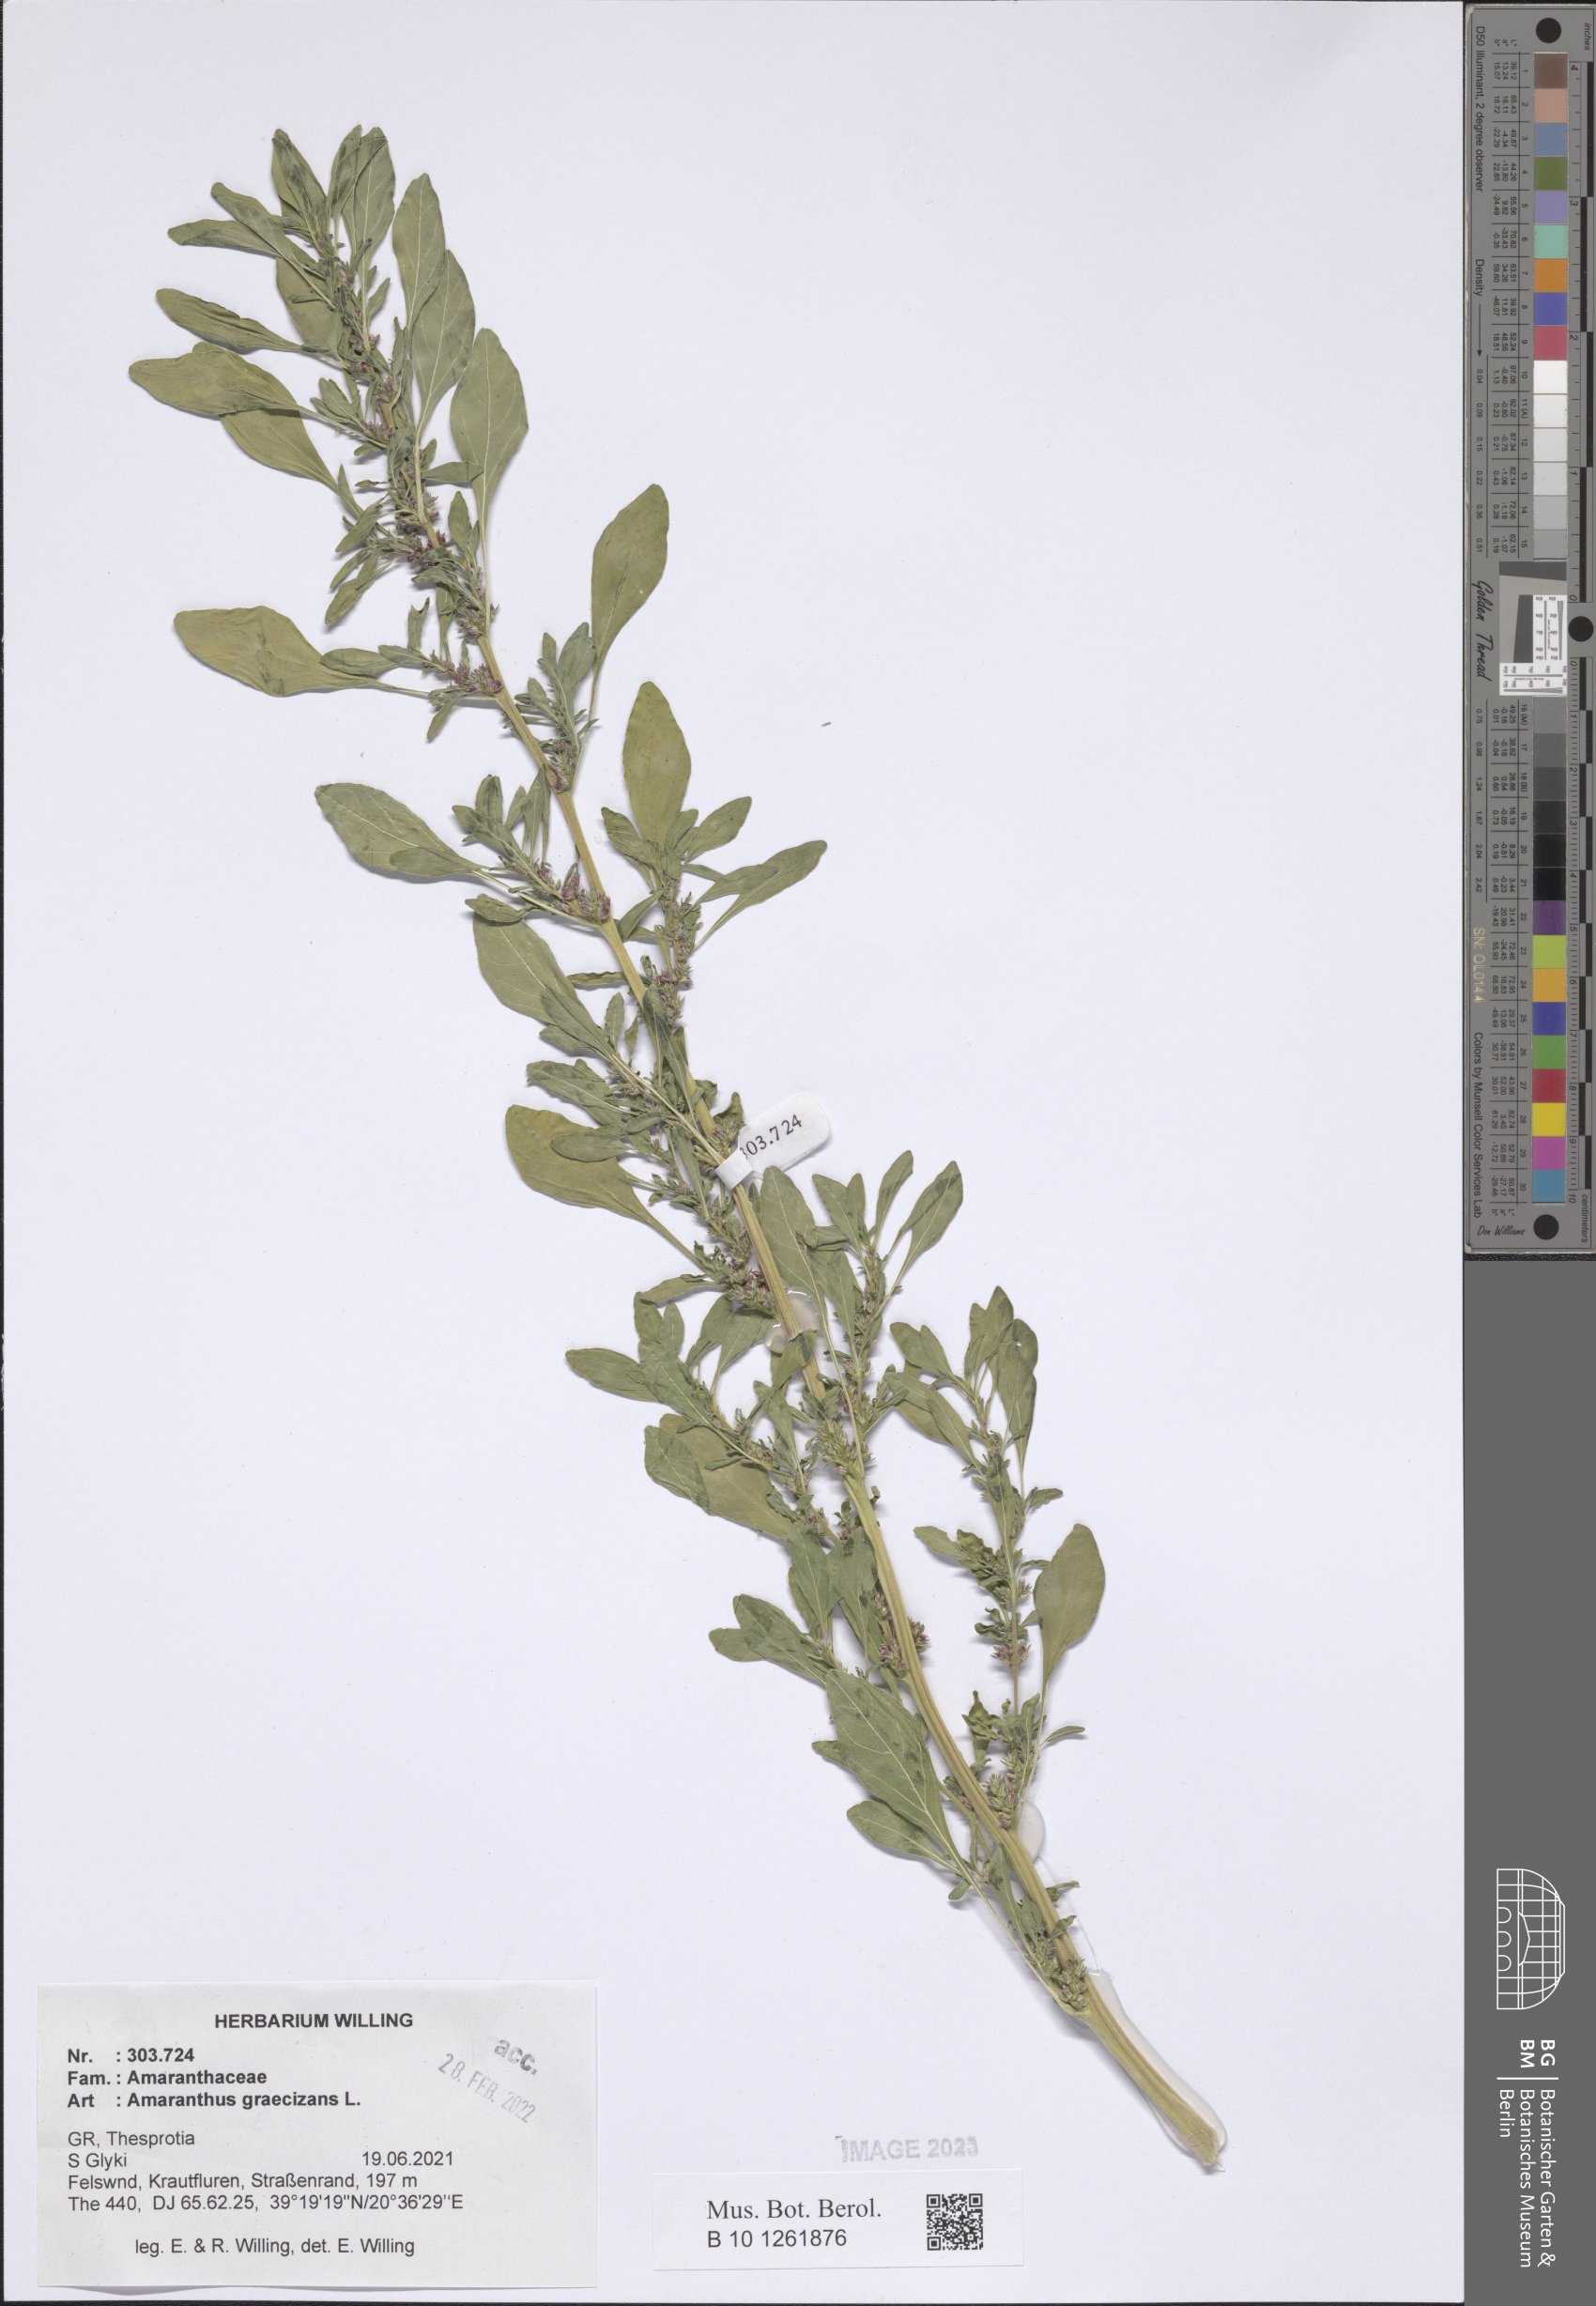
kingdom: Plantae
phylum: Tracheophyta
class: Magnoliopsida
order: Caryophyllales
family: Amaranthaceae
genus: Amaranthus
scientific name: Amaranthus graecizans
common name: Mediterranean amaranth
